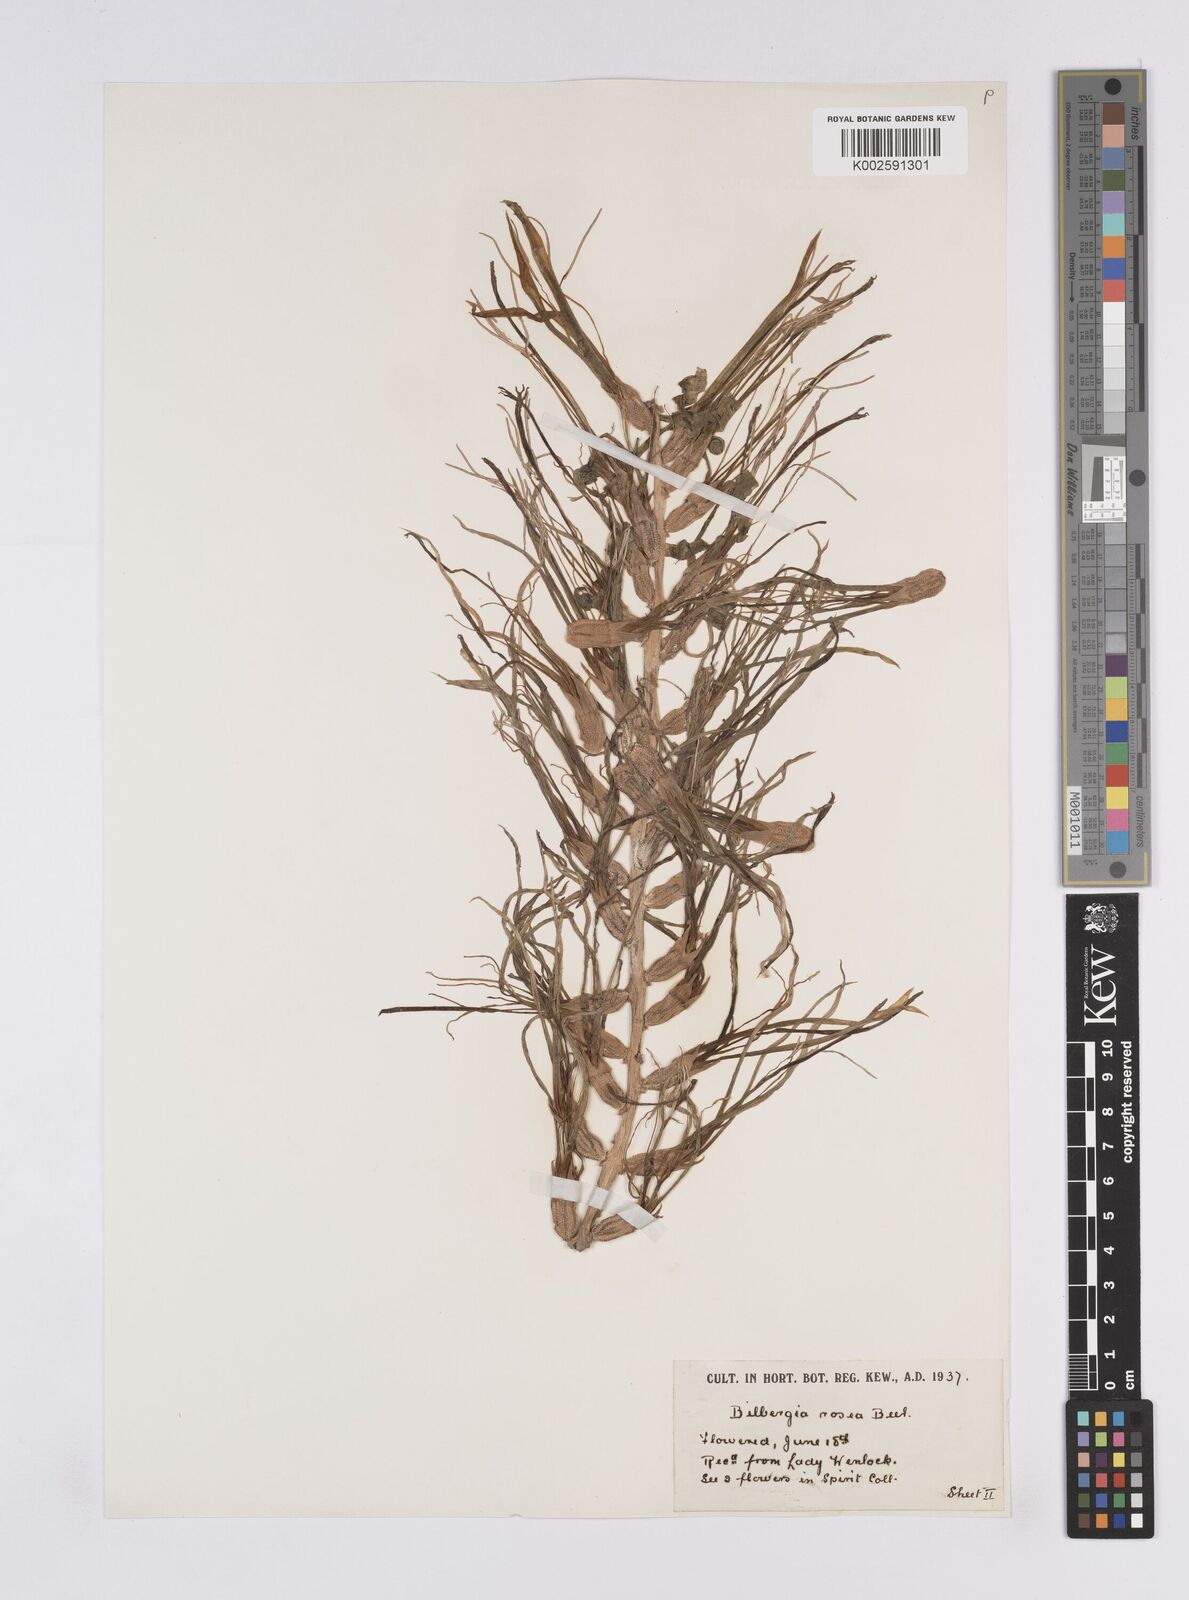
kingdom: Plantae
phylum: Tracheophyta
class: Liliopsida
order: Poales
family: Bromeliaceae
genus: Billbergia
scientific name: Billbergia rosea
